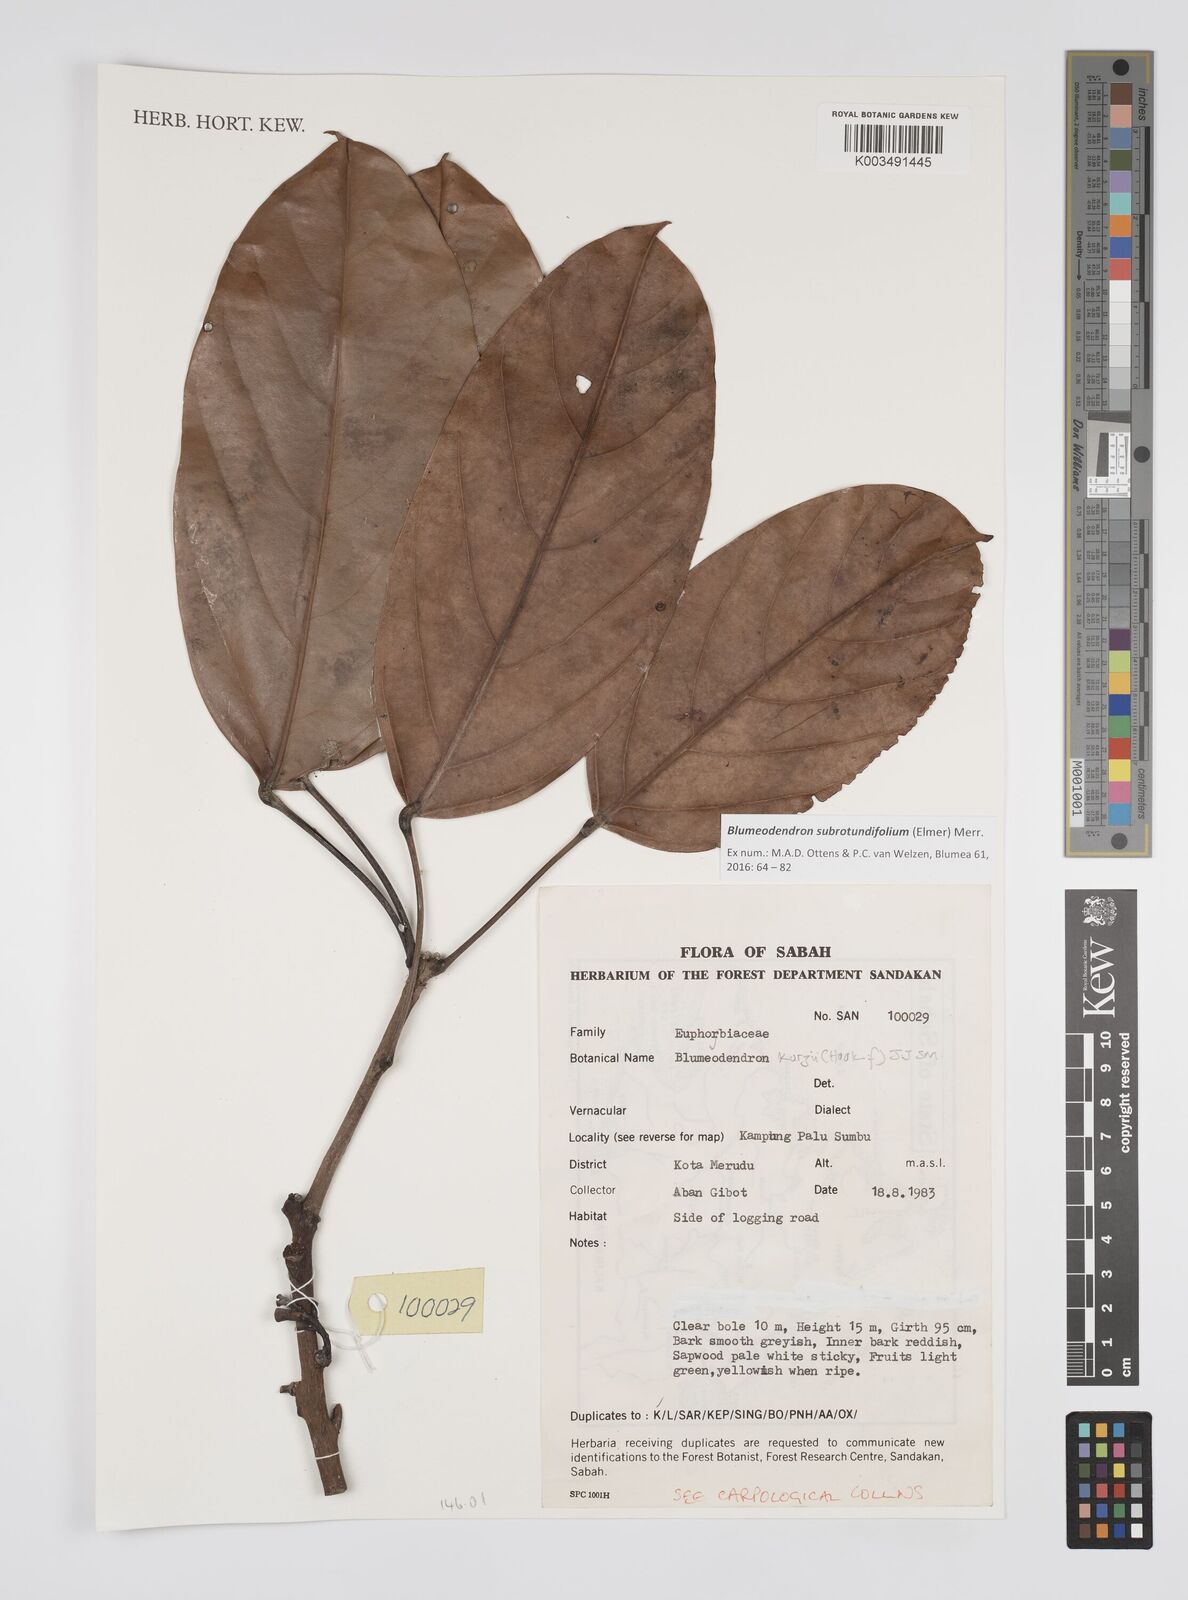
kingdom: Plantae
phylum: Tracheophyta
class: Magnoliopsida
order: Malpighiales
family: Euphorbiaceae
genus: Blumeodendron
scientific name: Blumeodendron subrotundifolium
